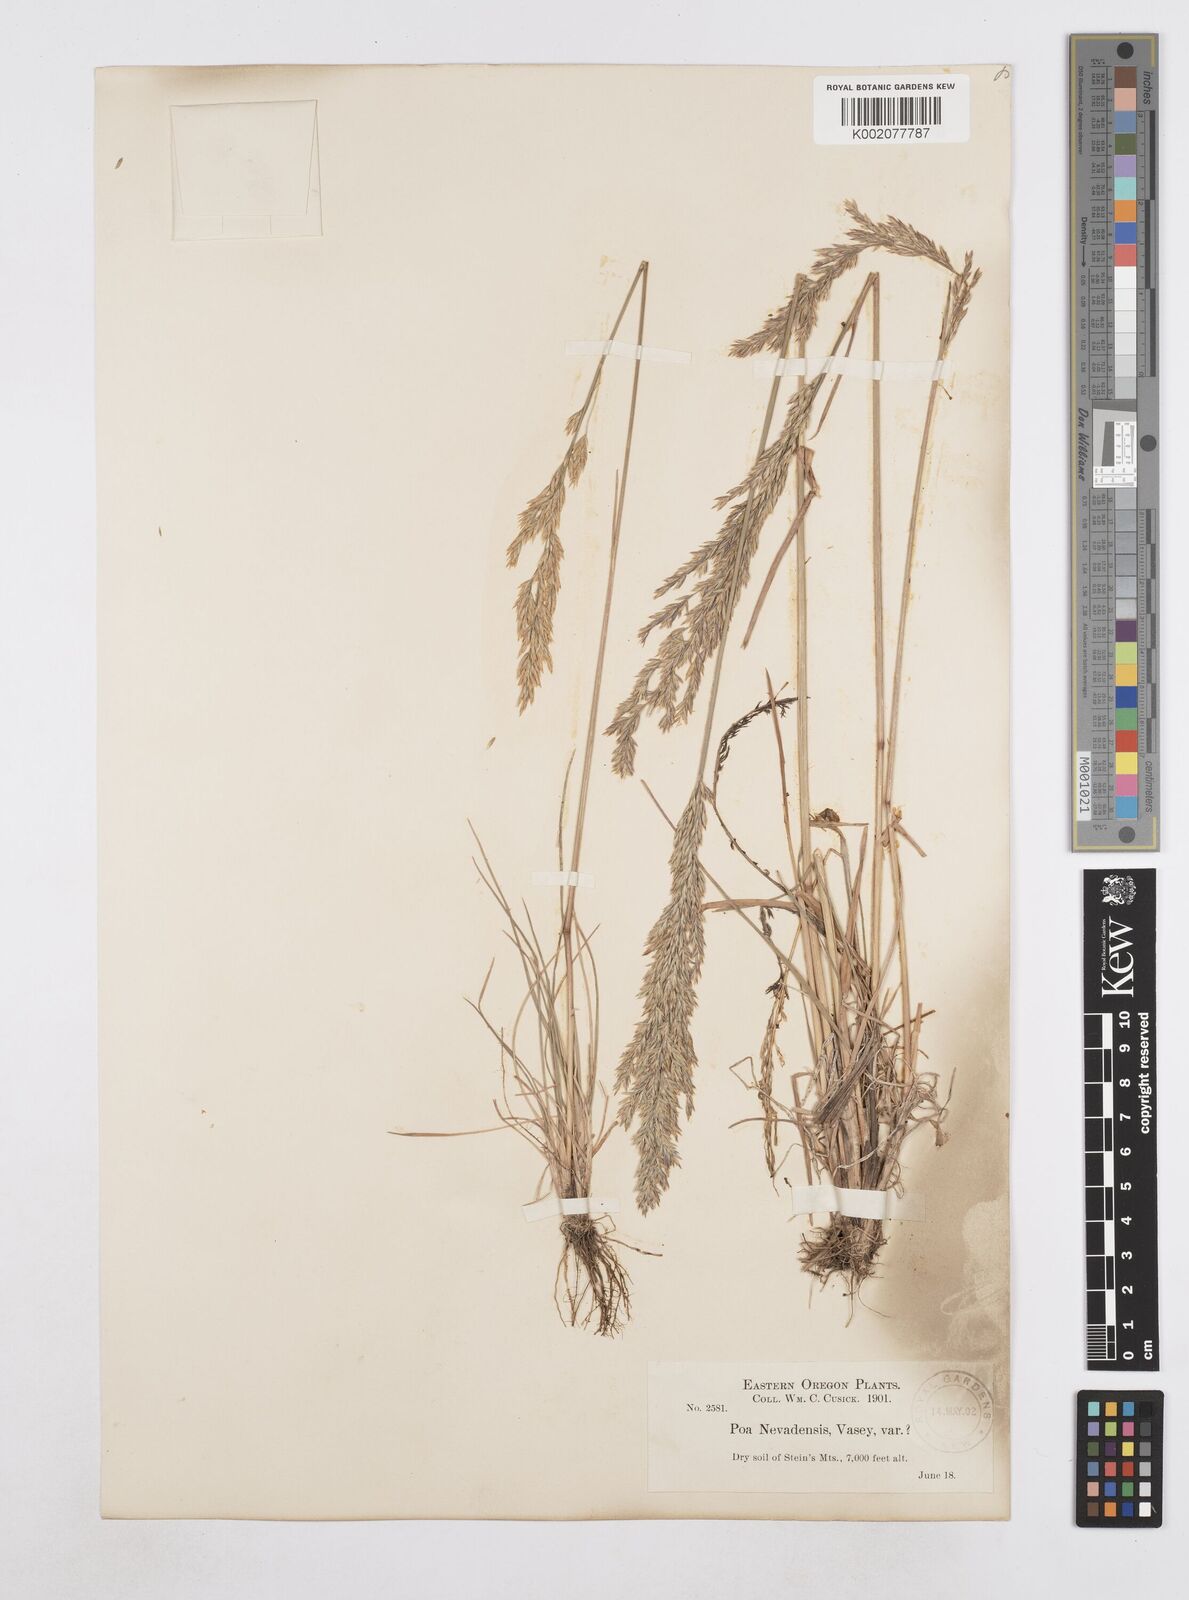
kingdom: Plantae
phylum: Tracheophyta
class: Liliopsida
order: Poales
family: Poaceae
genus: Poa
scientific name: Poa secunda
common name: Sandberg bluegrass
